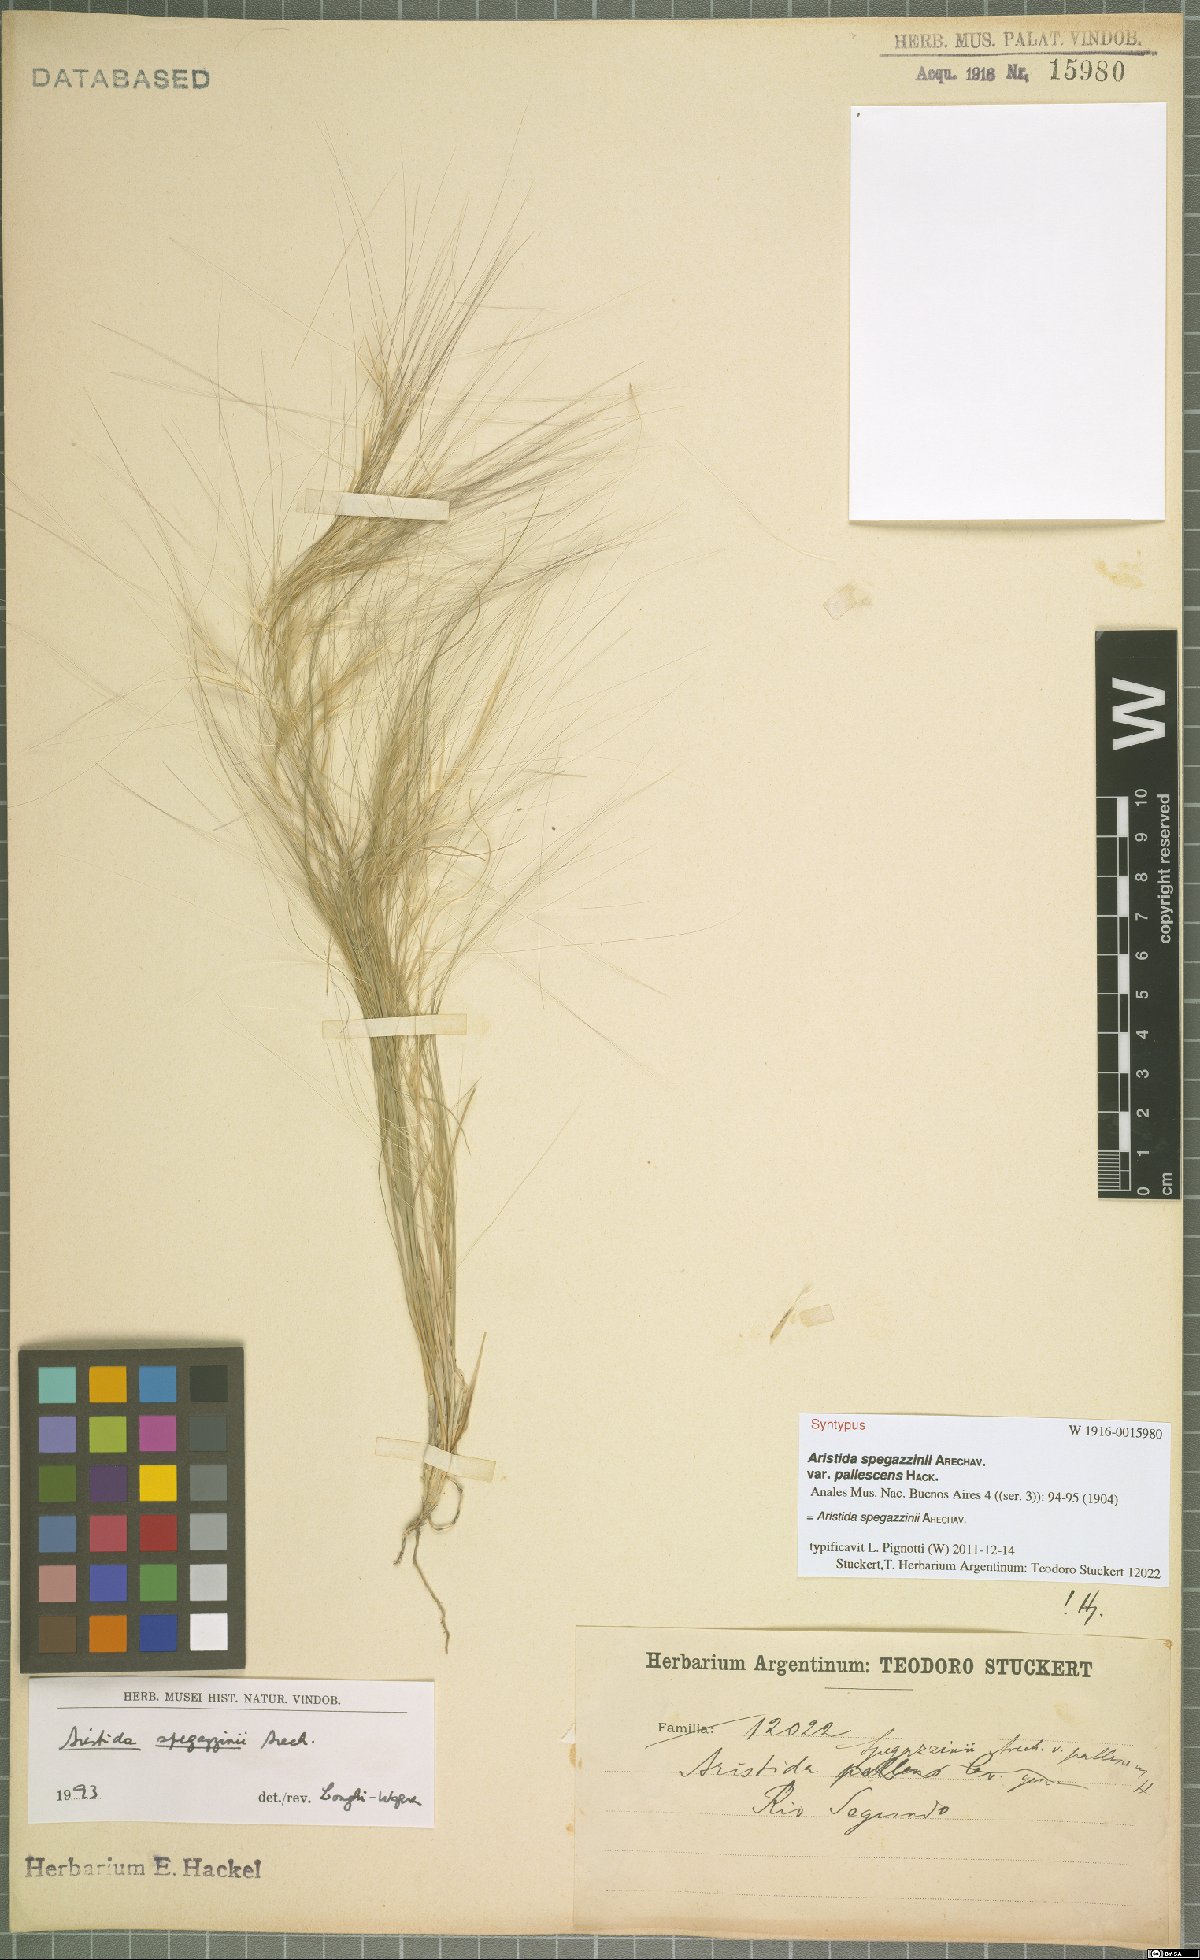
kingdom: Plantae
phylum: Tracheophyta
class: Liliopsida
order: Poales
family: Poaceae
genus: Aristida
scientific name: Aristida spegazzinii
